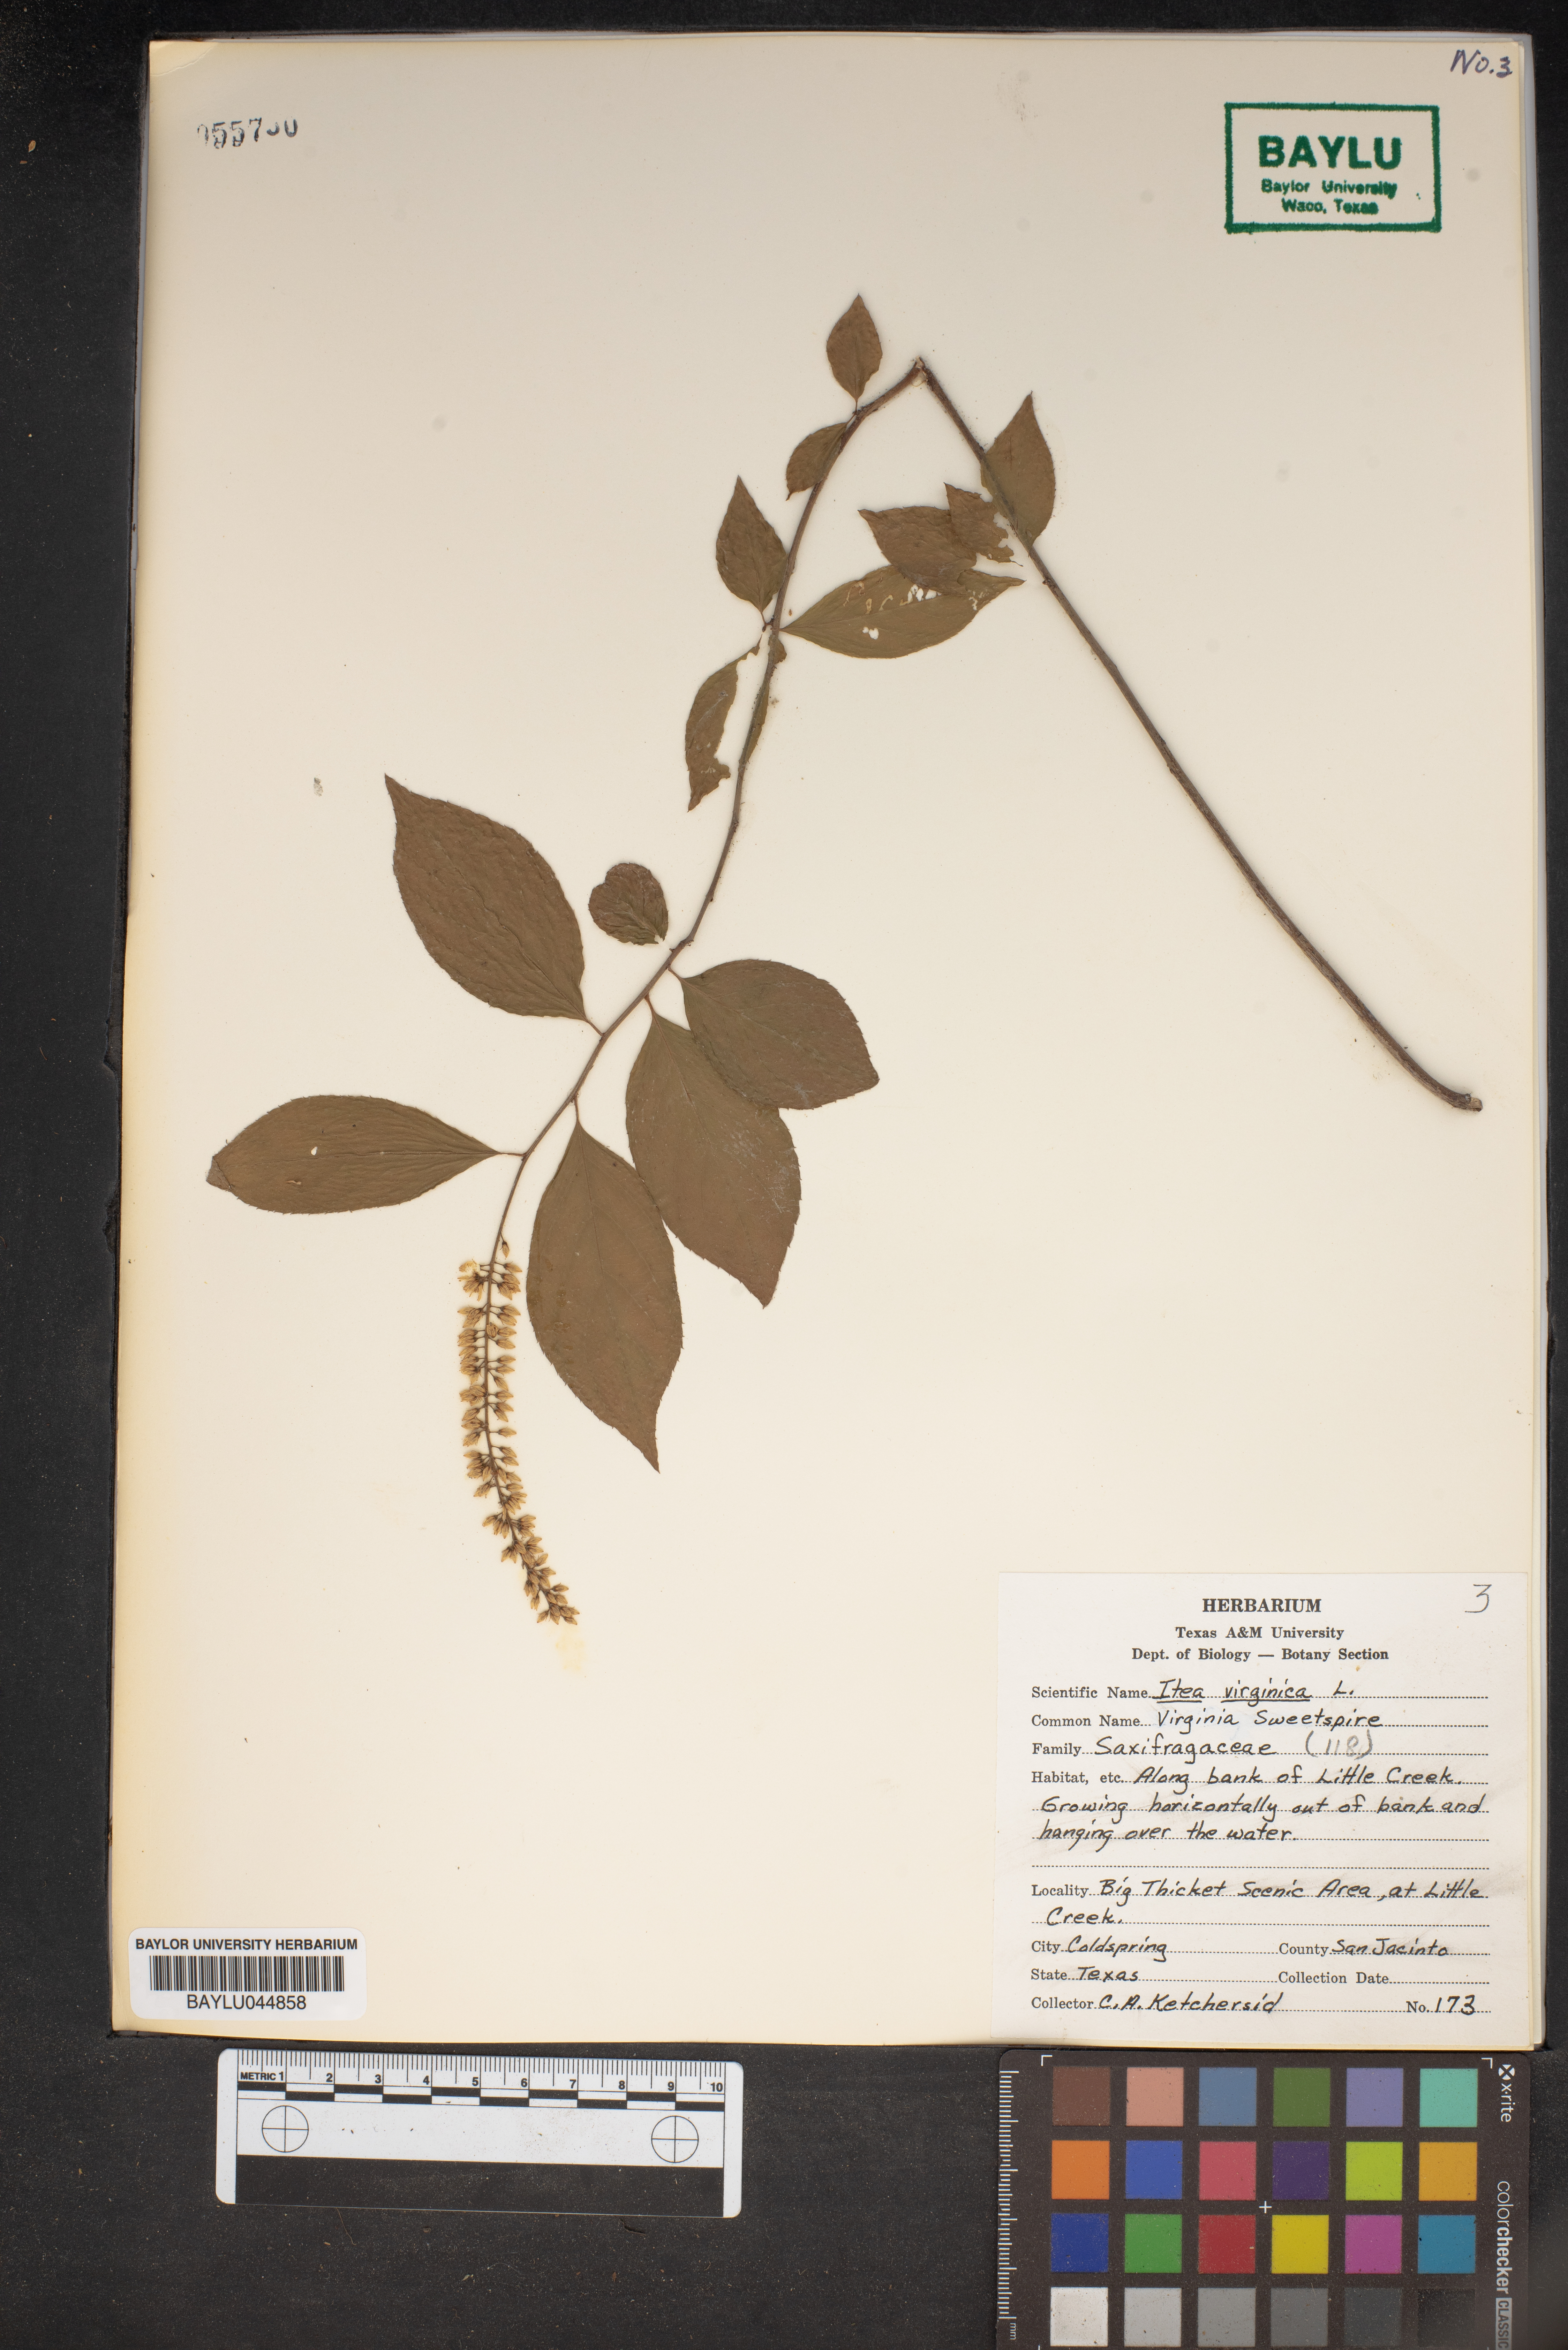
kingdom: Plantae
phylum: Tracheophyta
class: Magnoliopsida
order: Saxifragales
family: Iteaceae
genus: Itea
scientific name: Itea virginica
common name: Sweetspire
